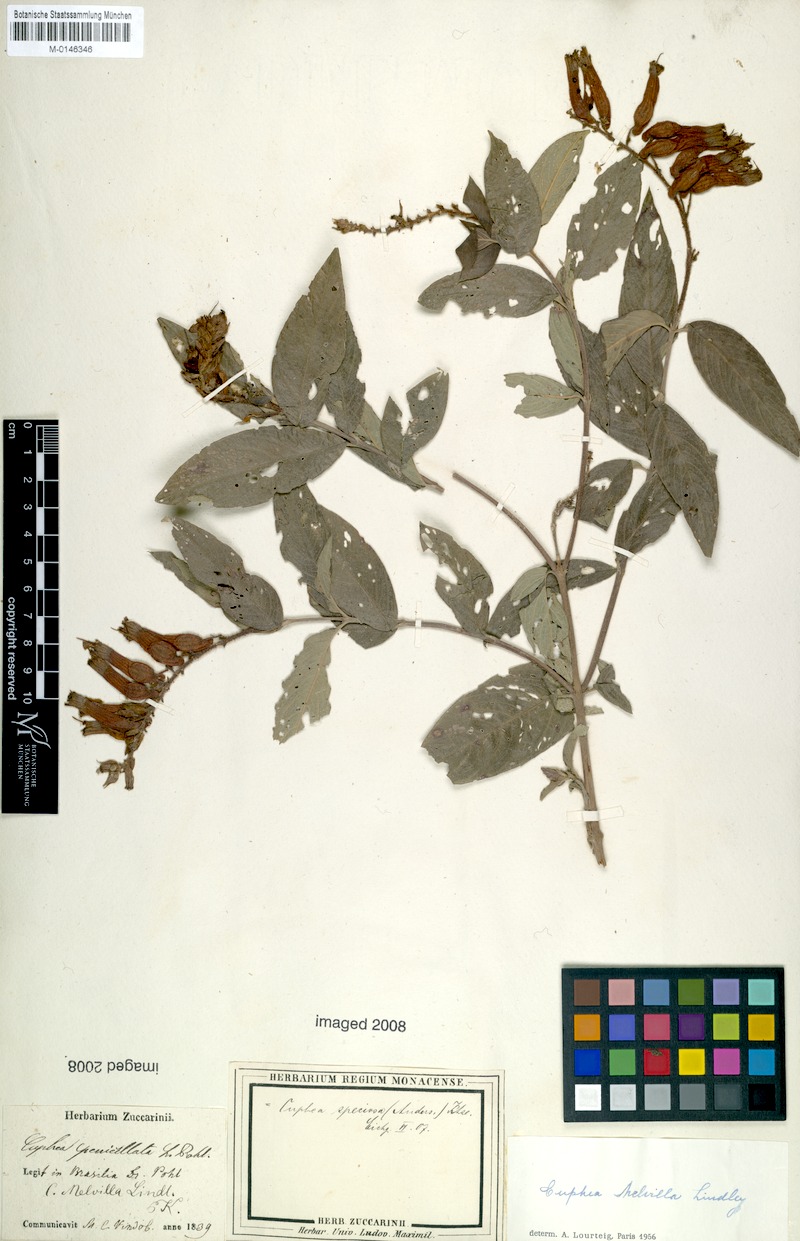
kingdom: Plantae
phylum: Tracheophyta
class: Magnoliopsida
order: Myrtales
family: Lythraceae
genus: Cuphea
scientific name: Cuphea melvilla
